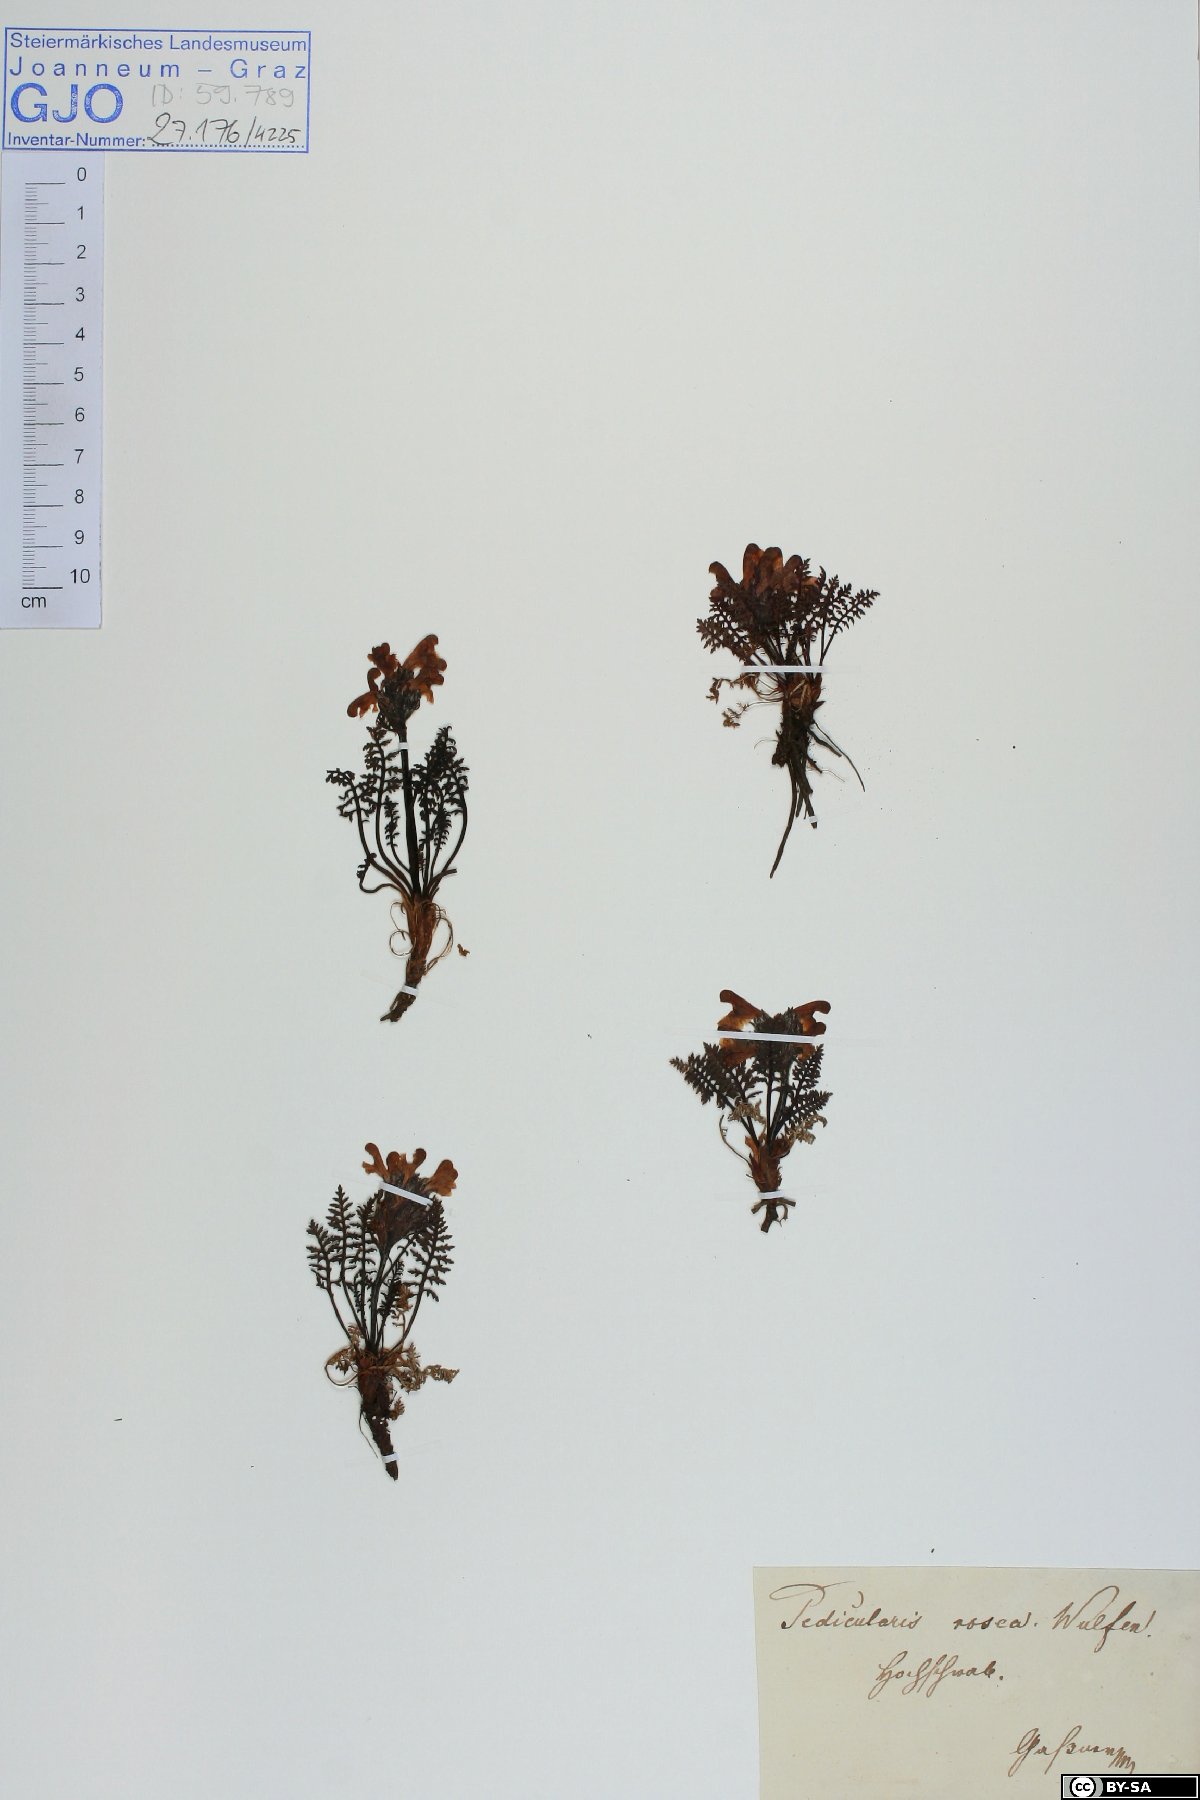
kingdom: Plantae
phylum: Tracheophyta
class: Magnoliopsida
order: Lamiales
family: Orobanchaceae
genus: Pedicularis
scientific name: Pedicularis rosea
